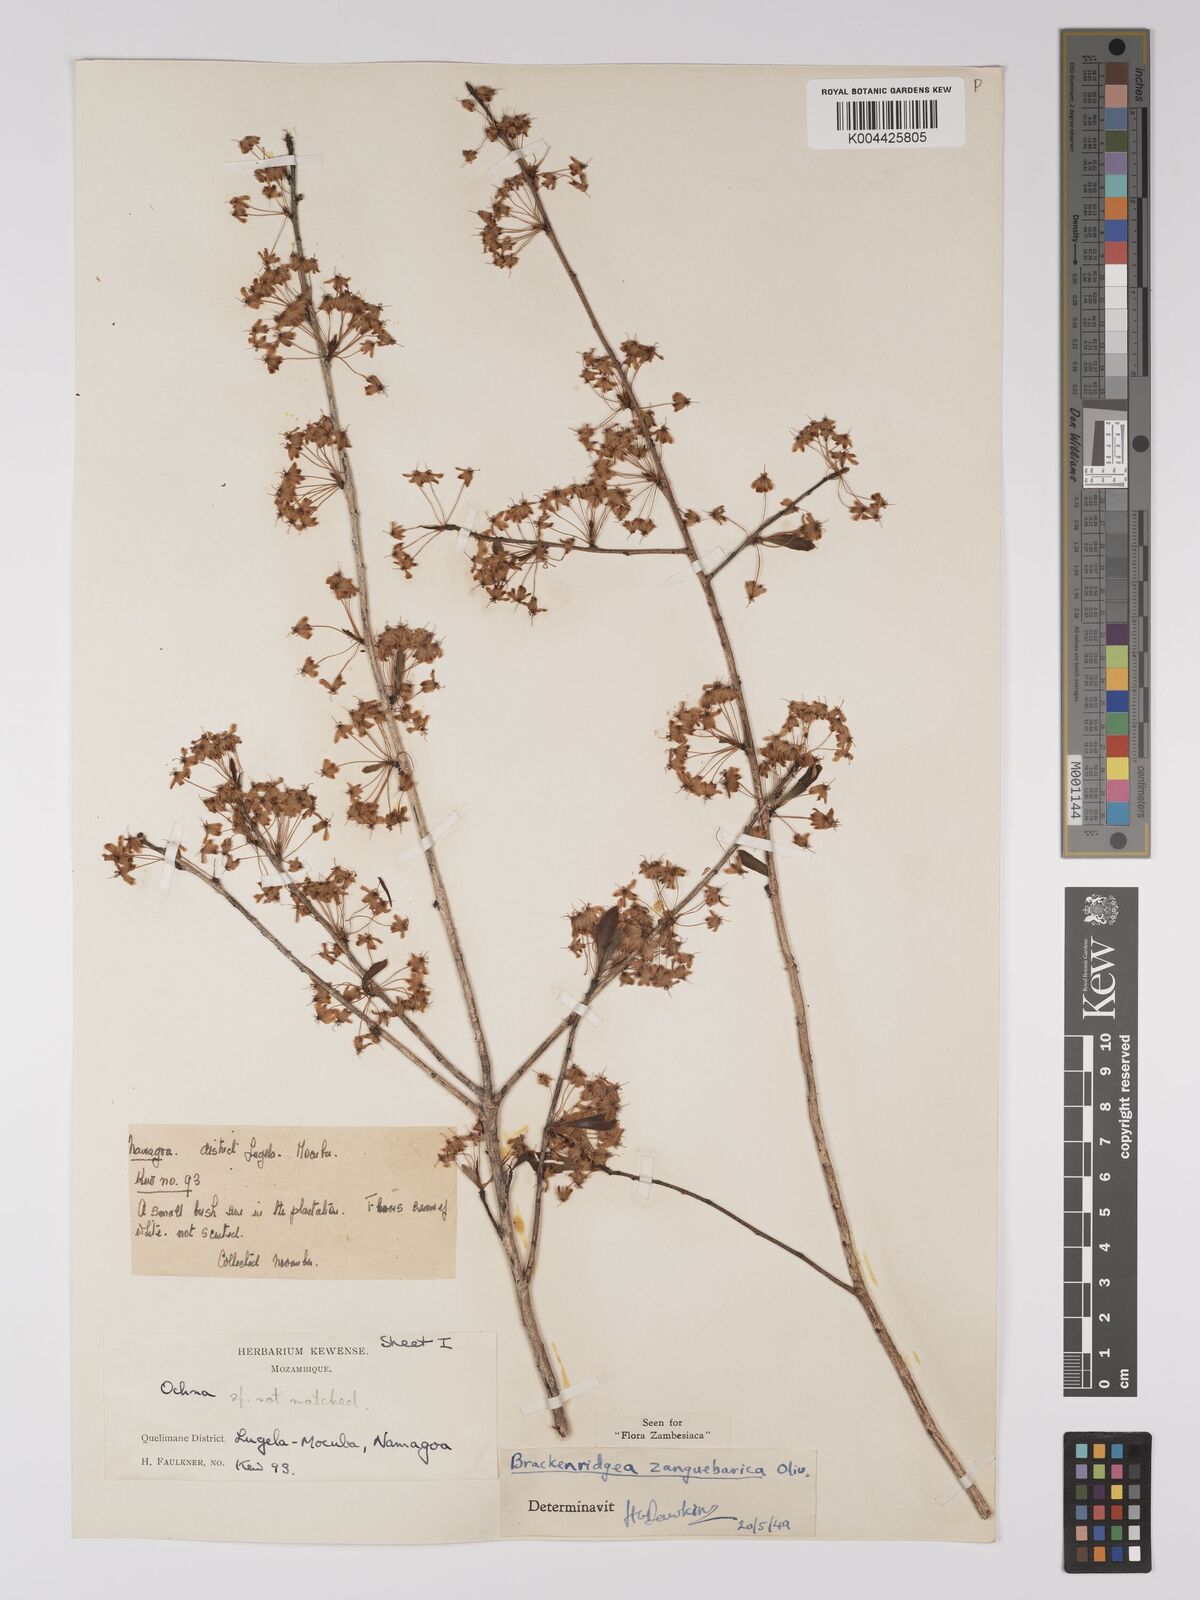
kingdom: Plantae
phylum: Tracheophyta
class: Magnoliopsida
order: Malpighiales
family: Ochnaceae
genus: Brackenridgea
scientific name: Brackenridgea zanguebarica
